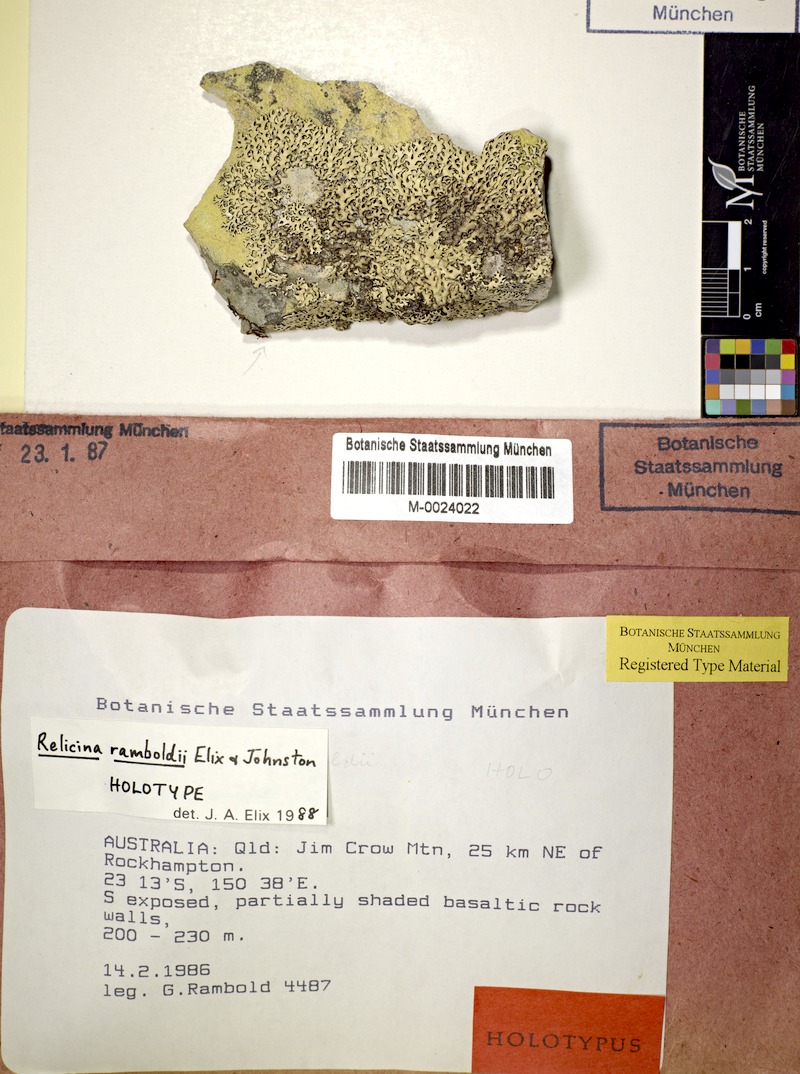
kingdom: Fungi
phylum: Ascomycota
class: Lecanoromycetes
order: Lecanorales
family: Parmeliaceae
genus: Relicina
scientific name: Relicina ramboldii
